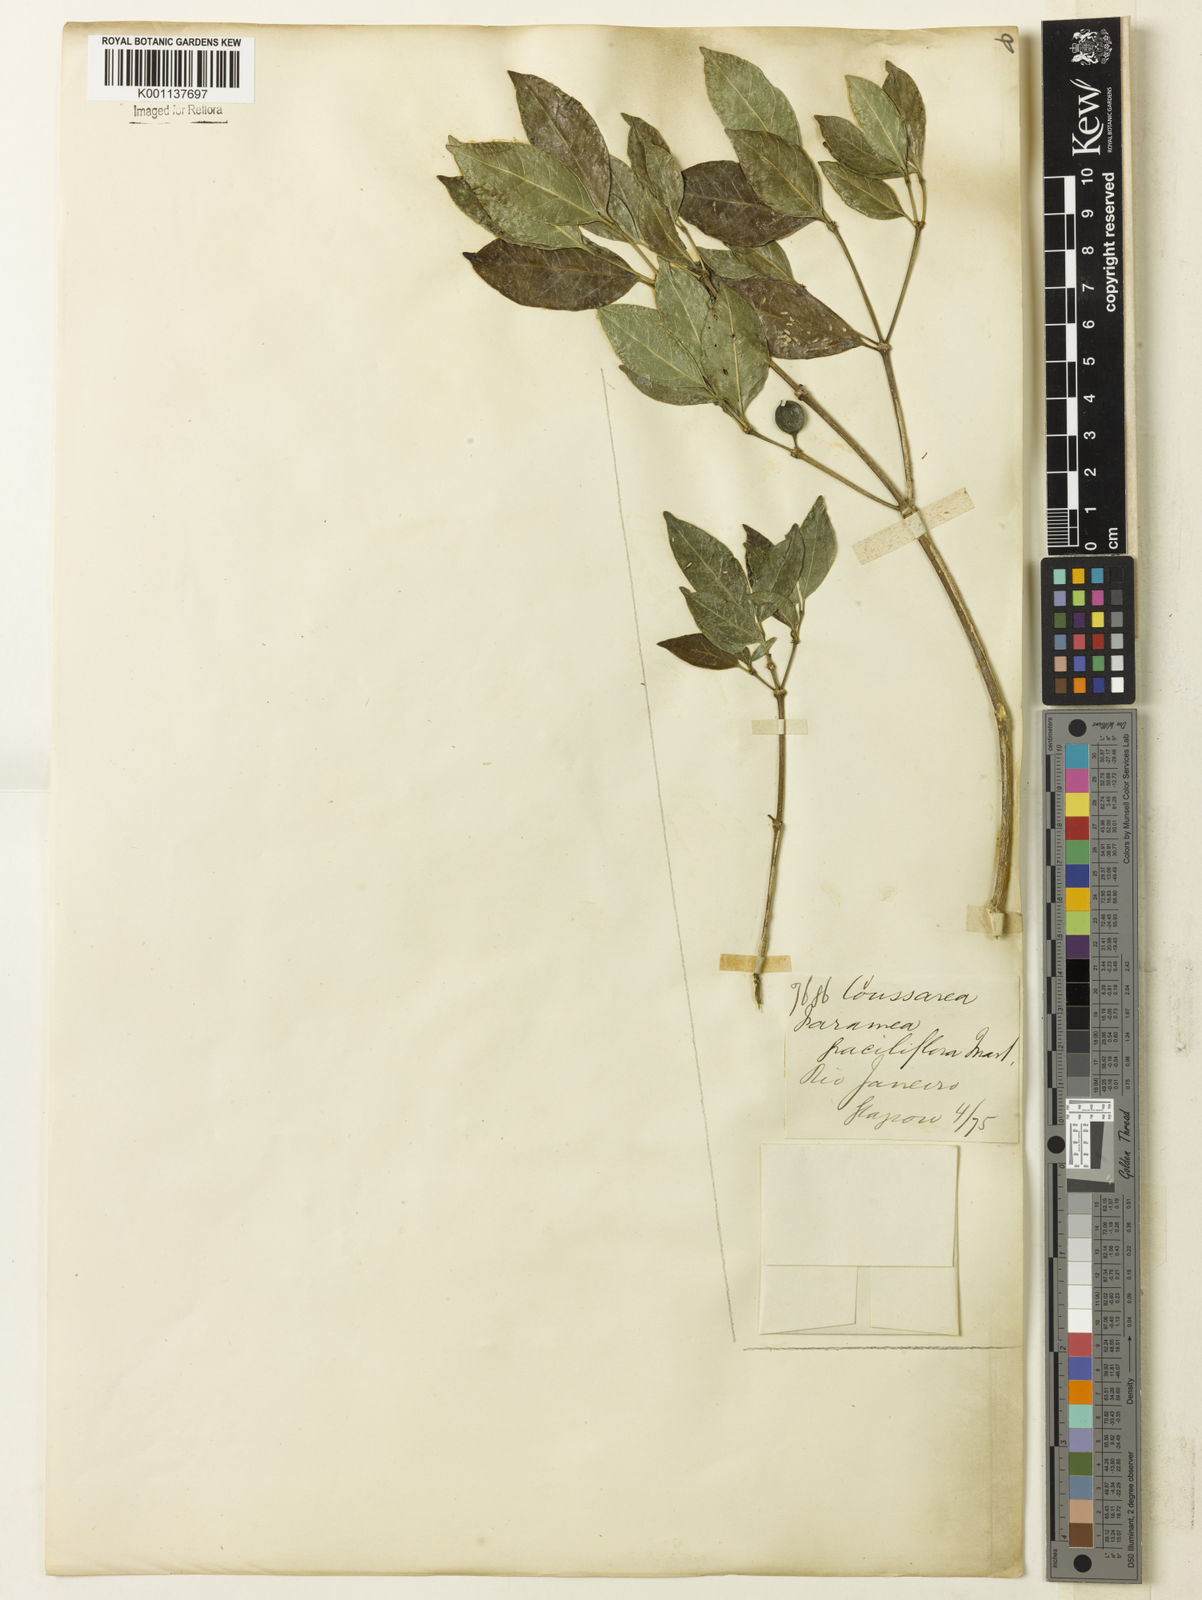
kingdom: Plantae
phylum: Tracheophyta
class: Magnoliopsida
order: Gentianales
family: Rubiaceae
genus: Coussarea
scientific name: Coussarea
